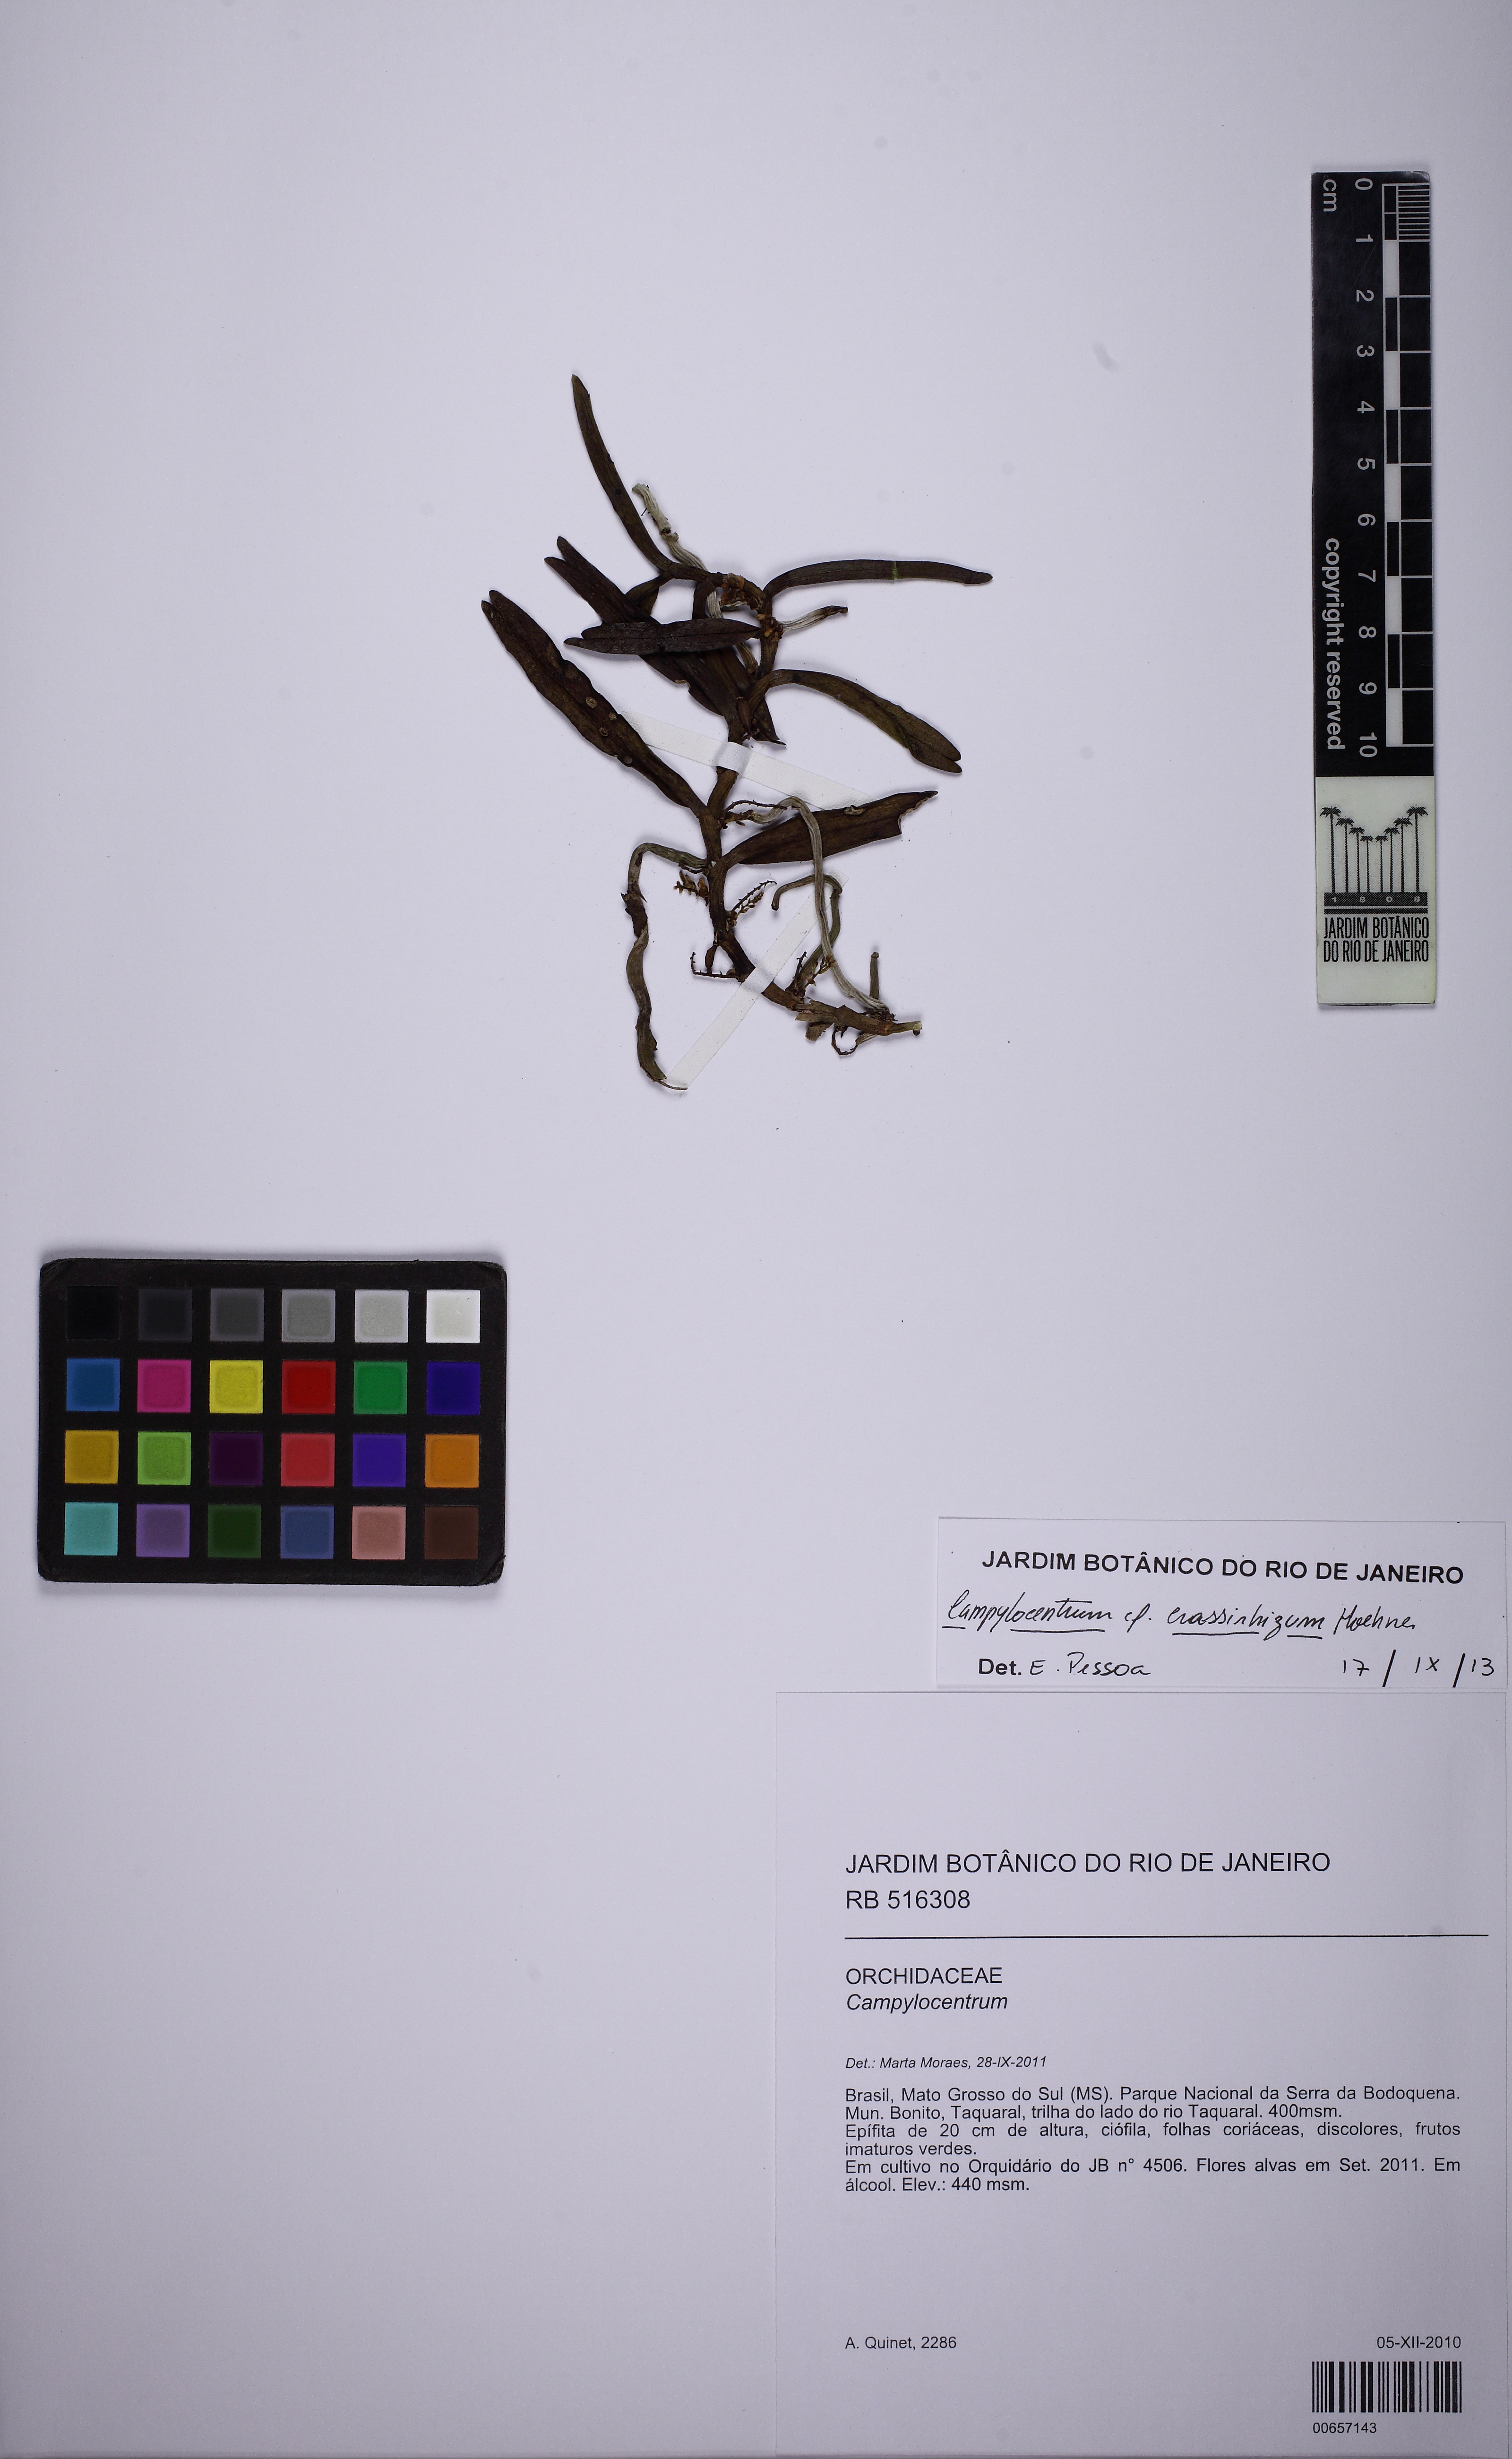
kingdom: Plantae
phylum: Tracheophyta
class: Liliopsida
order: Asparagales
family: Orchidaceae
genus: Campylocentrum
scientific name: Campylocentrum neglectum
